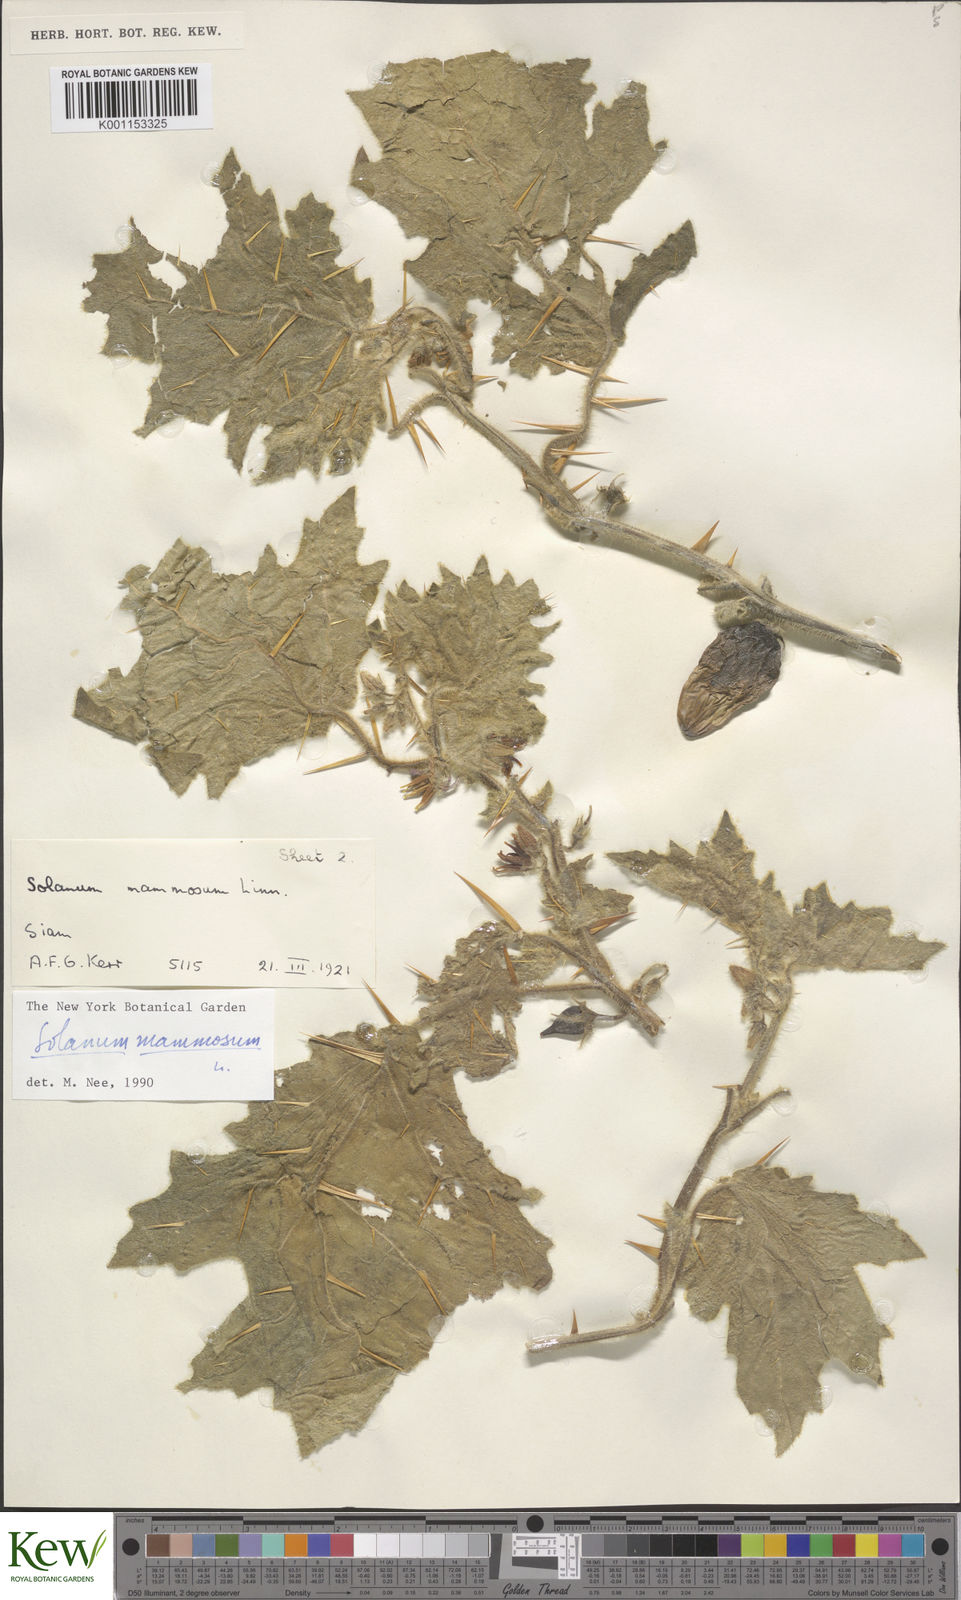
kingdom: Plantae
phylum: Tracheophyta
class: Magnoliopsida
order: Solanales
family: Solanaceae
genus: Solanum
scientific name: Solanum mammosum
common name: Nipple fruit
